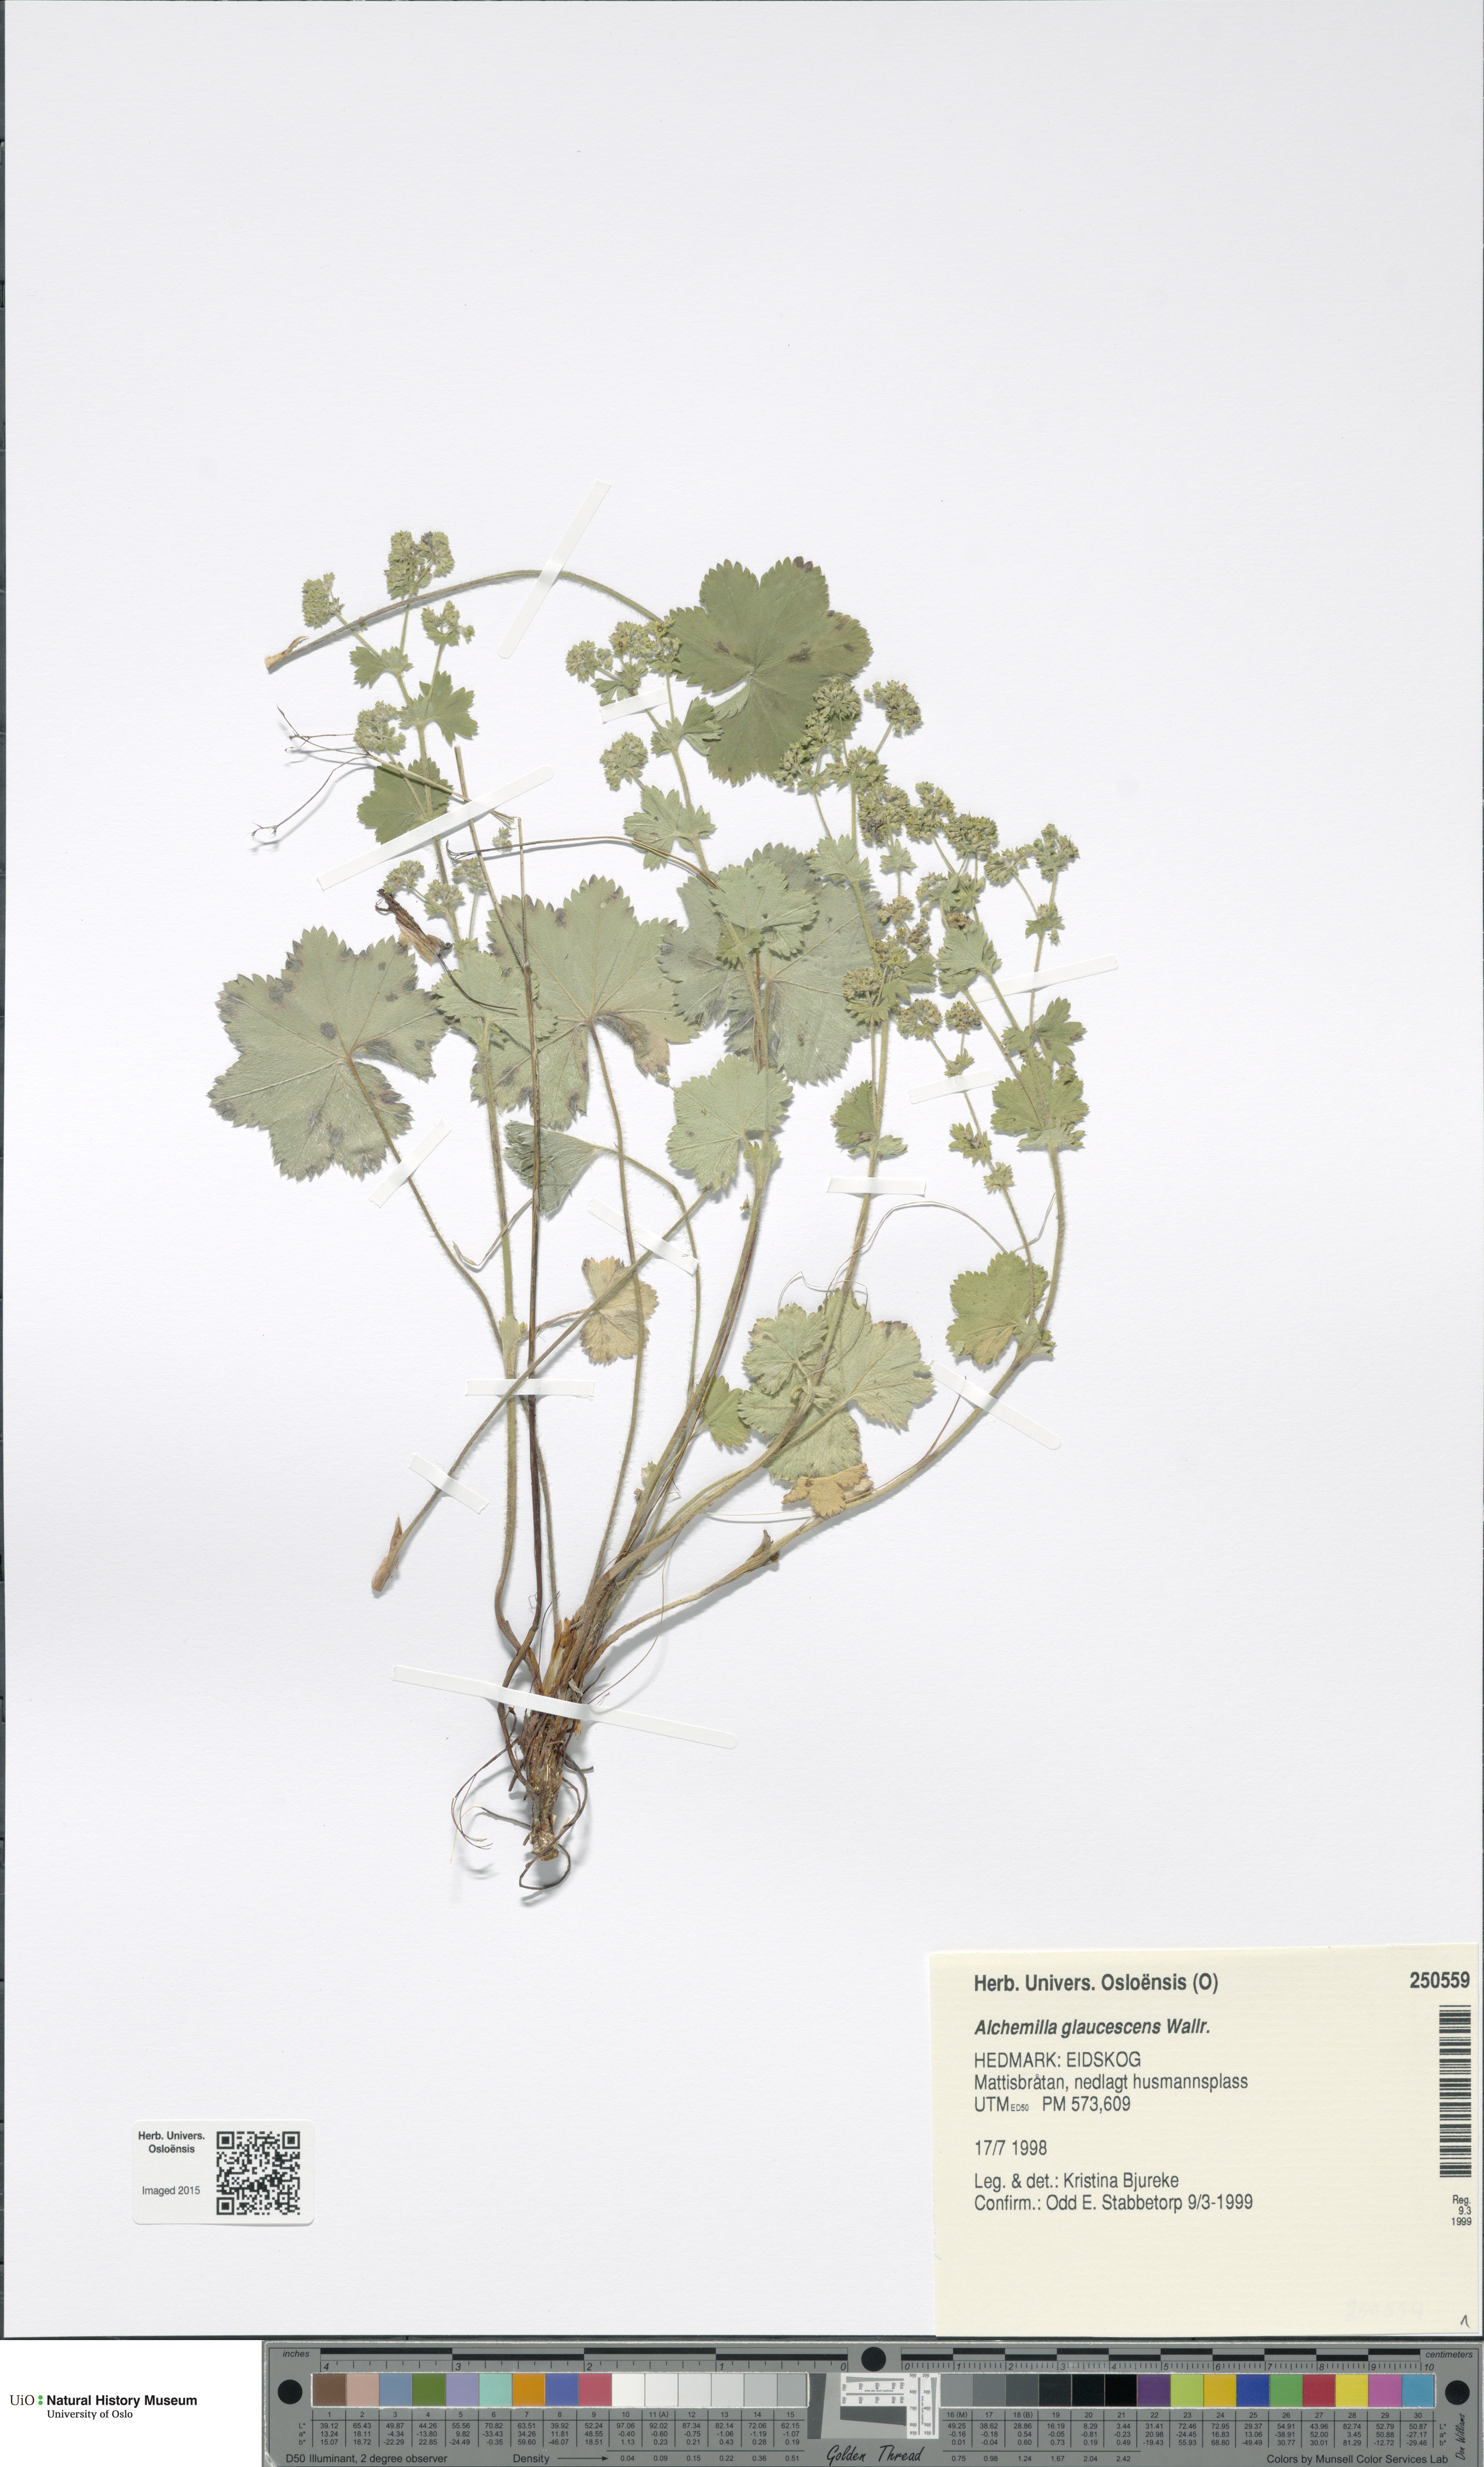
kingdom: Plantae
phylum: Tracheophyta
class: Magnoliopsida
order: Rosales
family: Rosaceae
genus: Alchemilla
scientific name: Alchemilla glaucescens
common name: Silky lady's mantle
